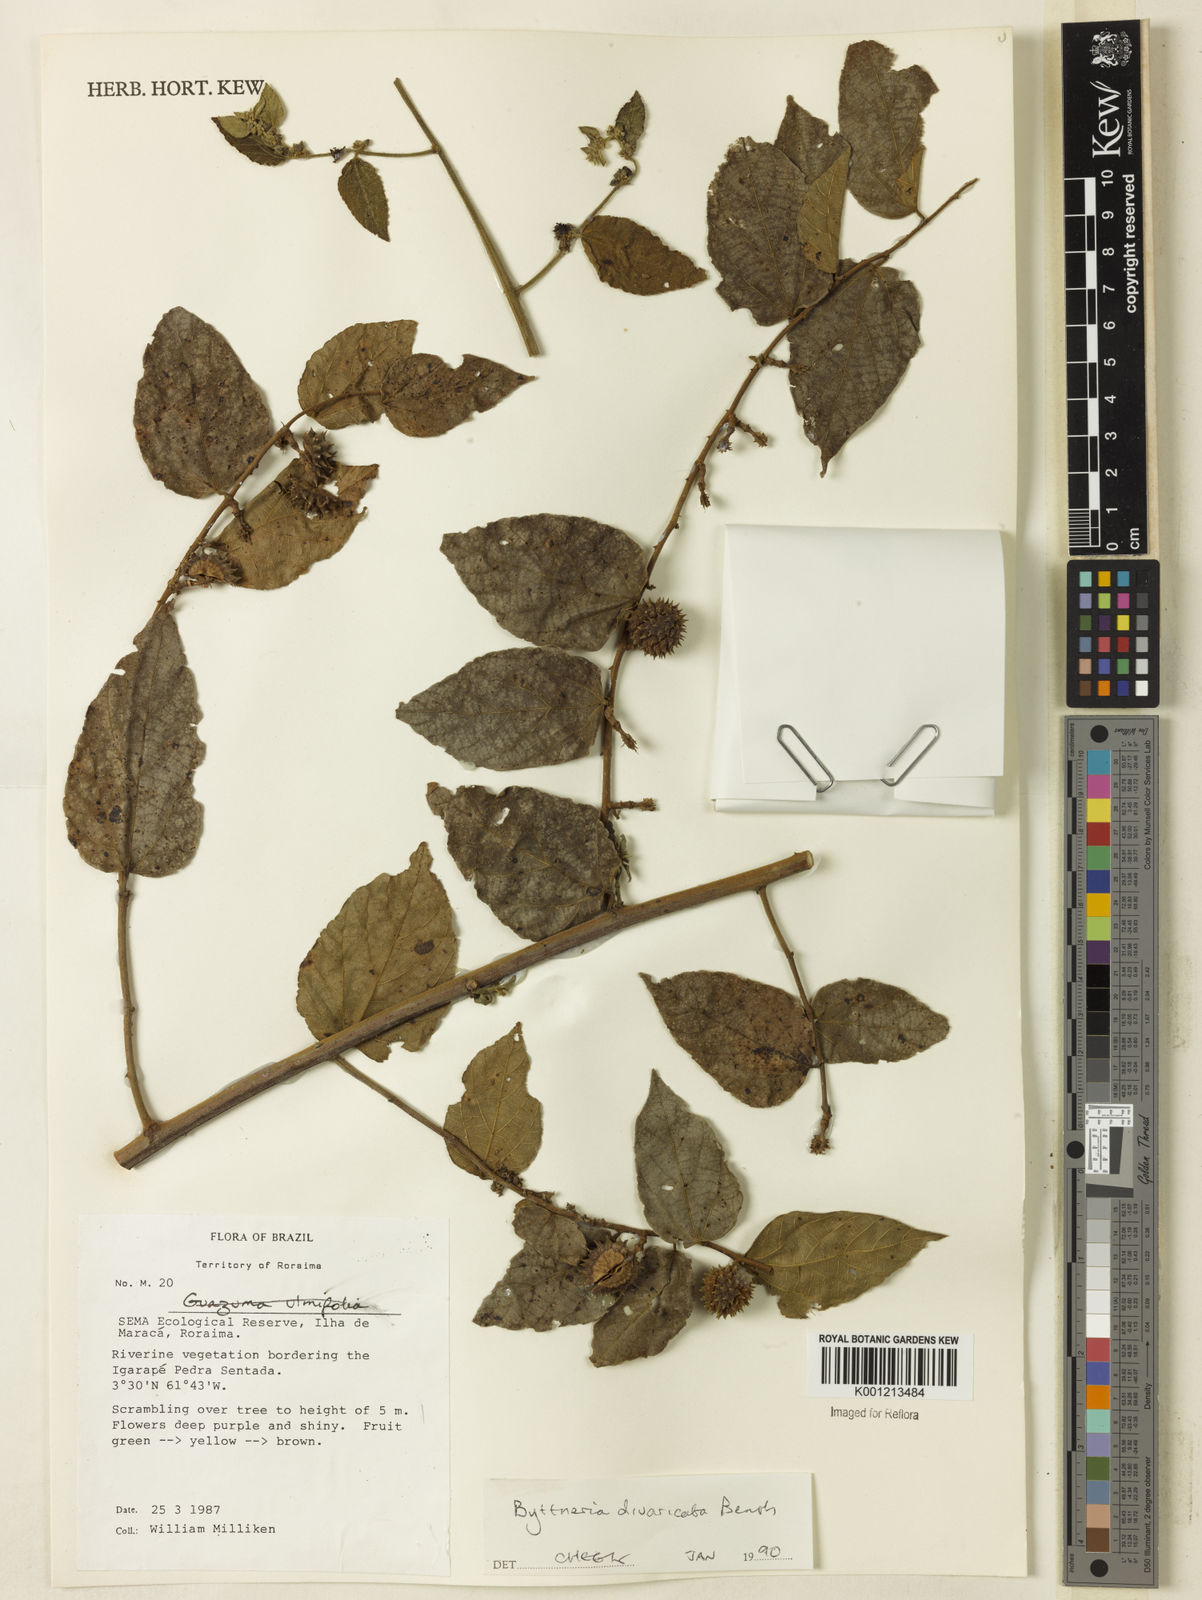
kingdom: Plantae
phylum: Tracheophyta
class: Magnoliopsida
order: Malvales
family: Malvaceae
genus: Byttneria
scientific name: Byttneria divaricata
